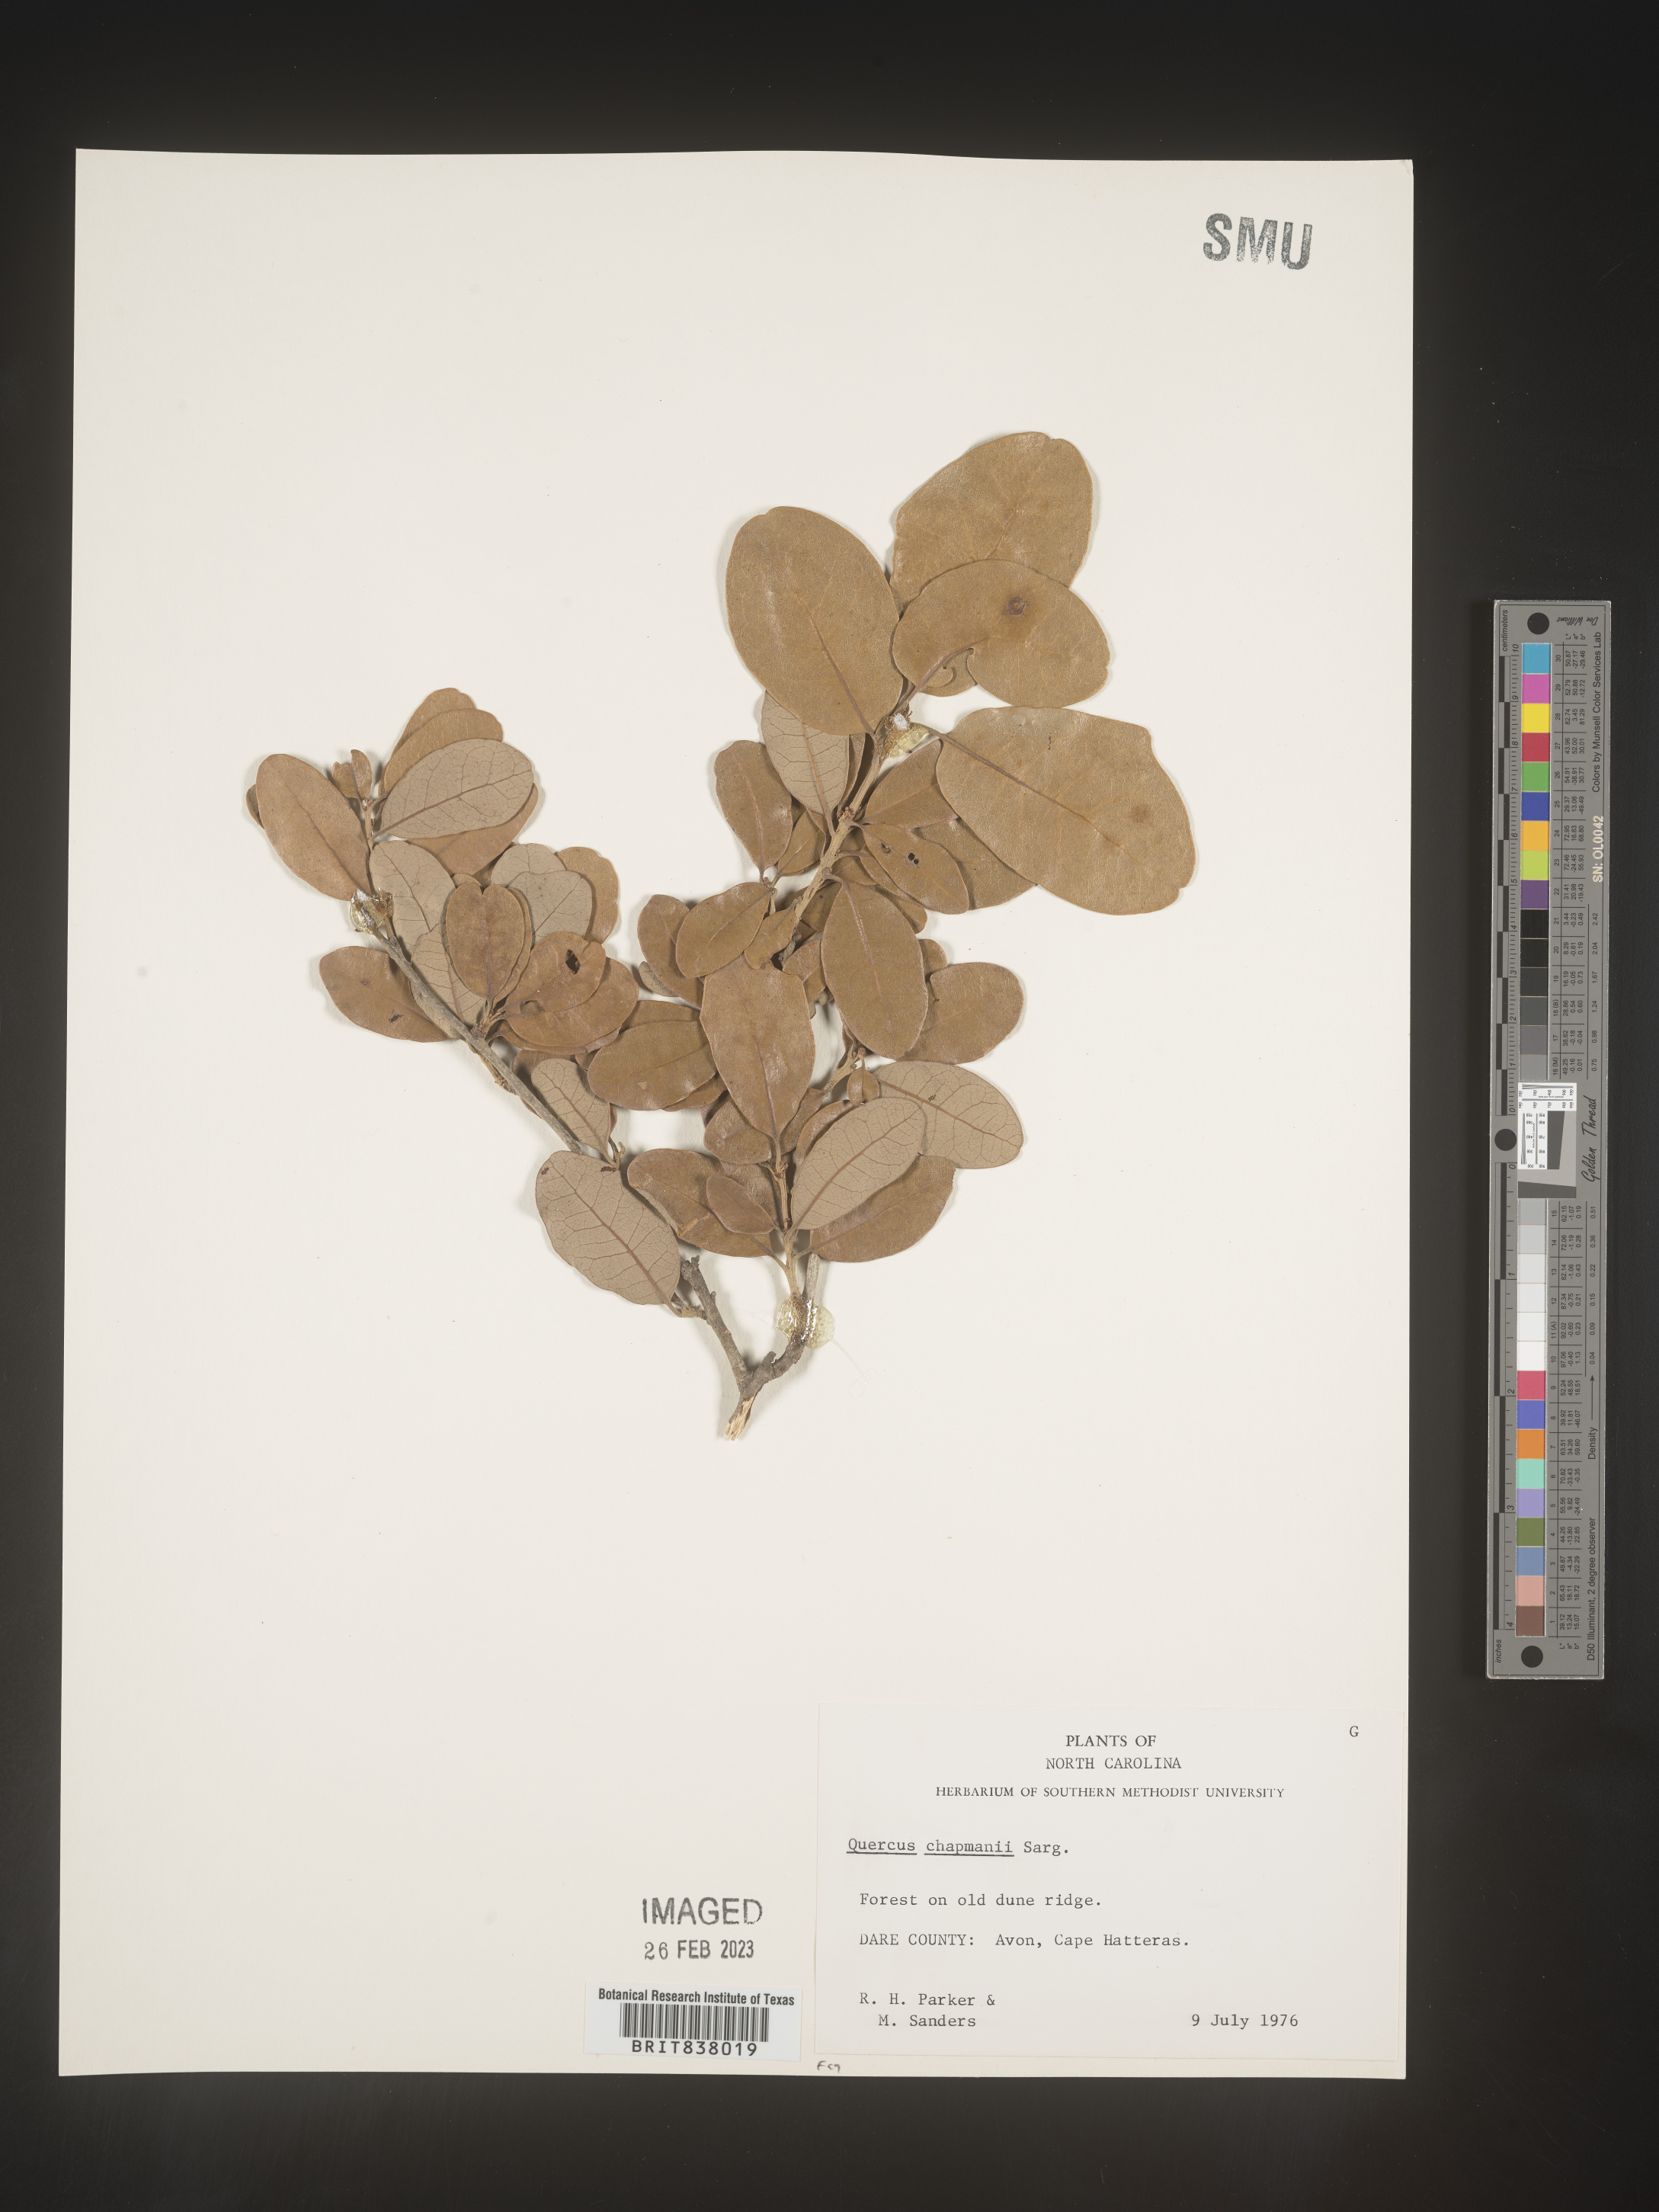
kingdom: Plantae
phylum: Tracheophyta
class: Magnoliopsida
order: Fagales
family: Fagaceae
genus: Quercus
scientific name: Quercus
